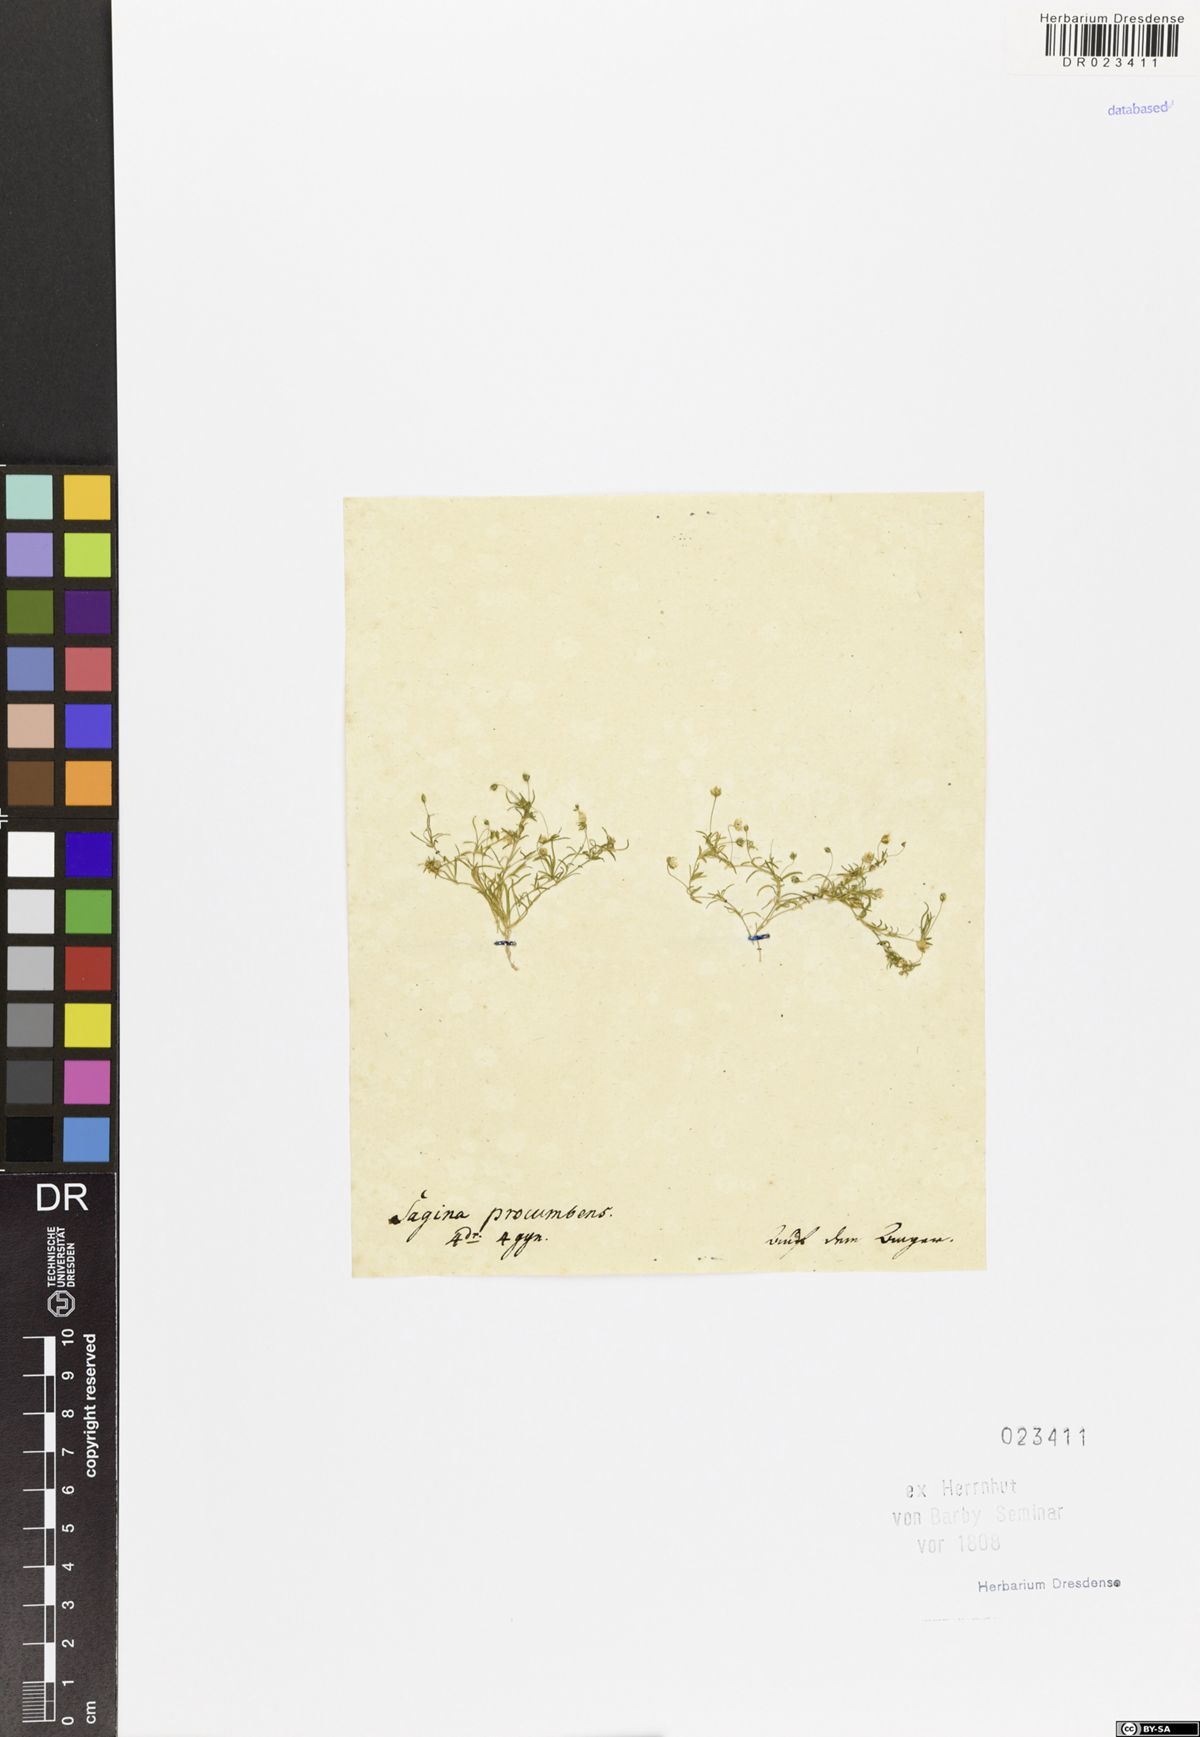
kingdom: Plantae
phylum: Tracheophyta
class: Magnoliopsida
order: Caryophyllales
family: Caryophyllaceae
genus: Sagina
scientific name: Sagina procumbens
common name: Procumbent pearlwort
